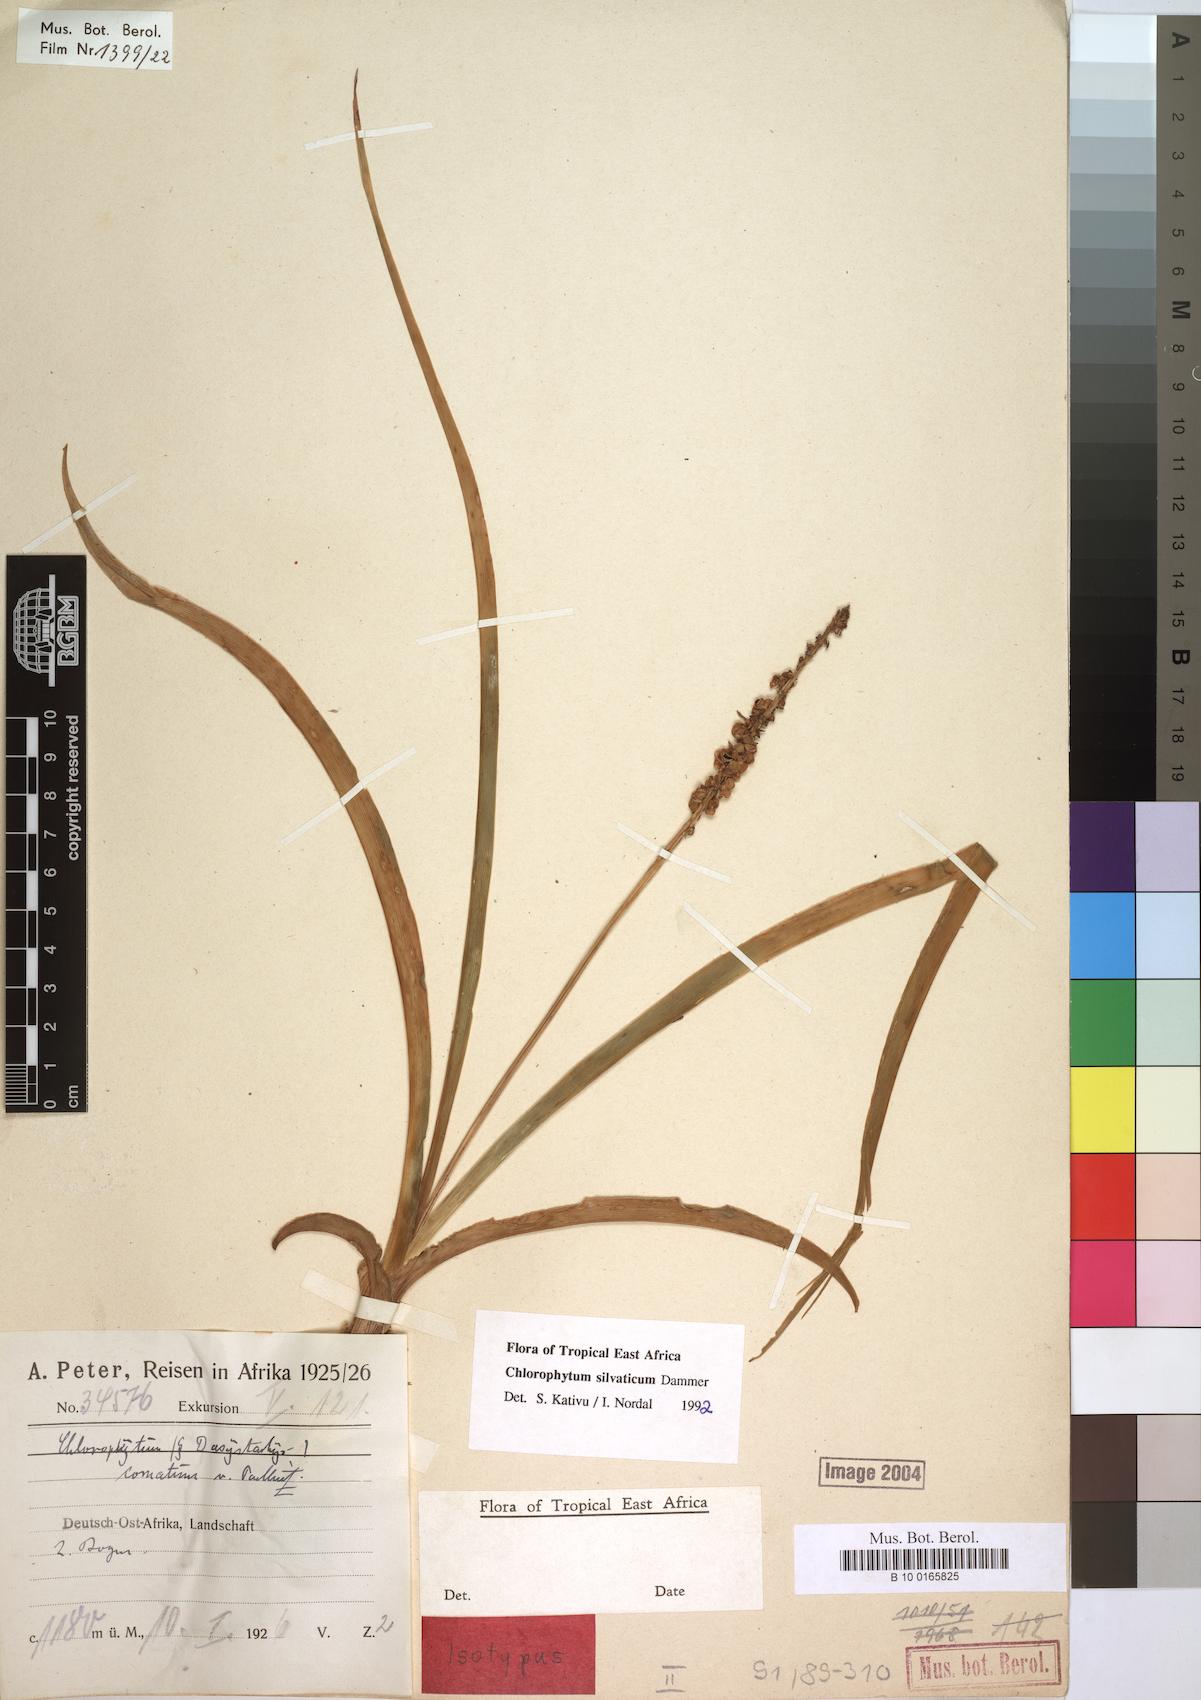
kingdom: Plantae
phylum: Tracheophyta
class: Liliopsida
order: Asparagales
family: Asparagaceae
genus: Chlorophytum
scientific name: Chlorophytum africanum
